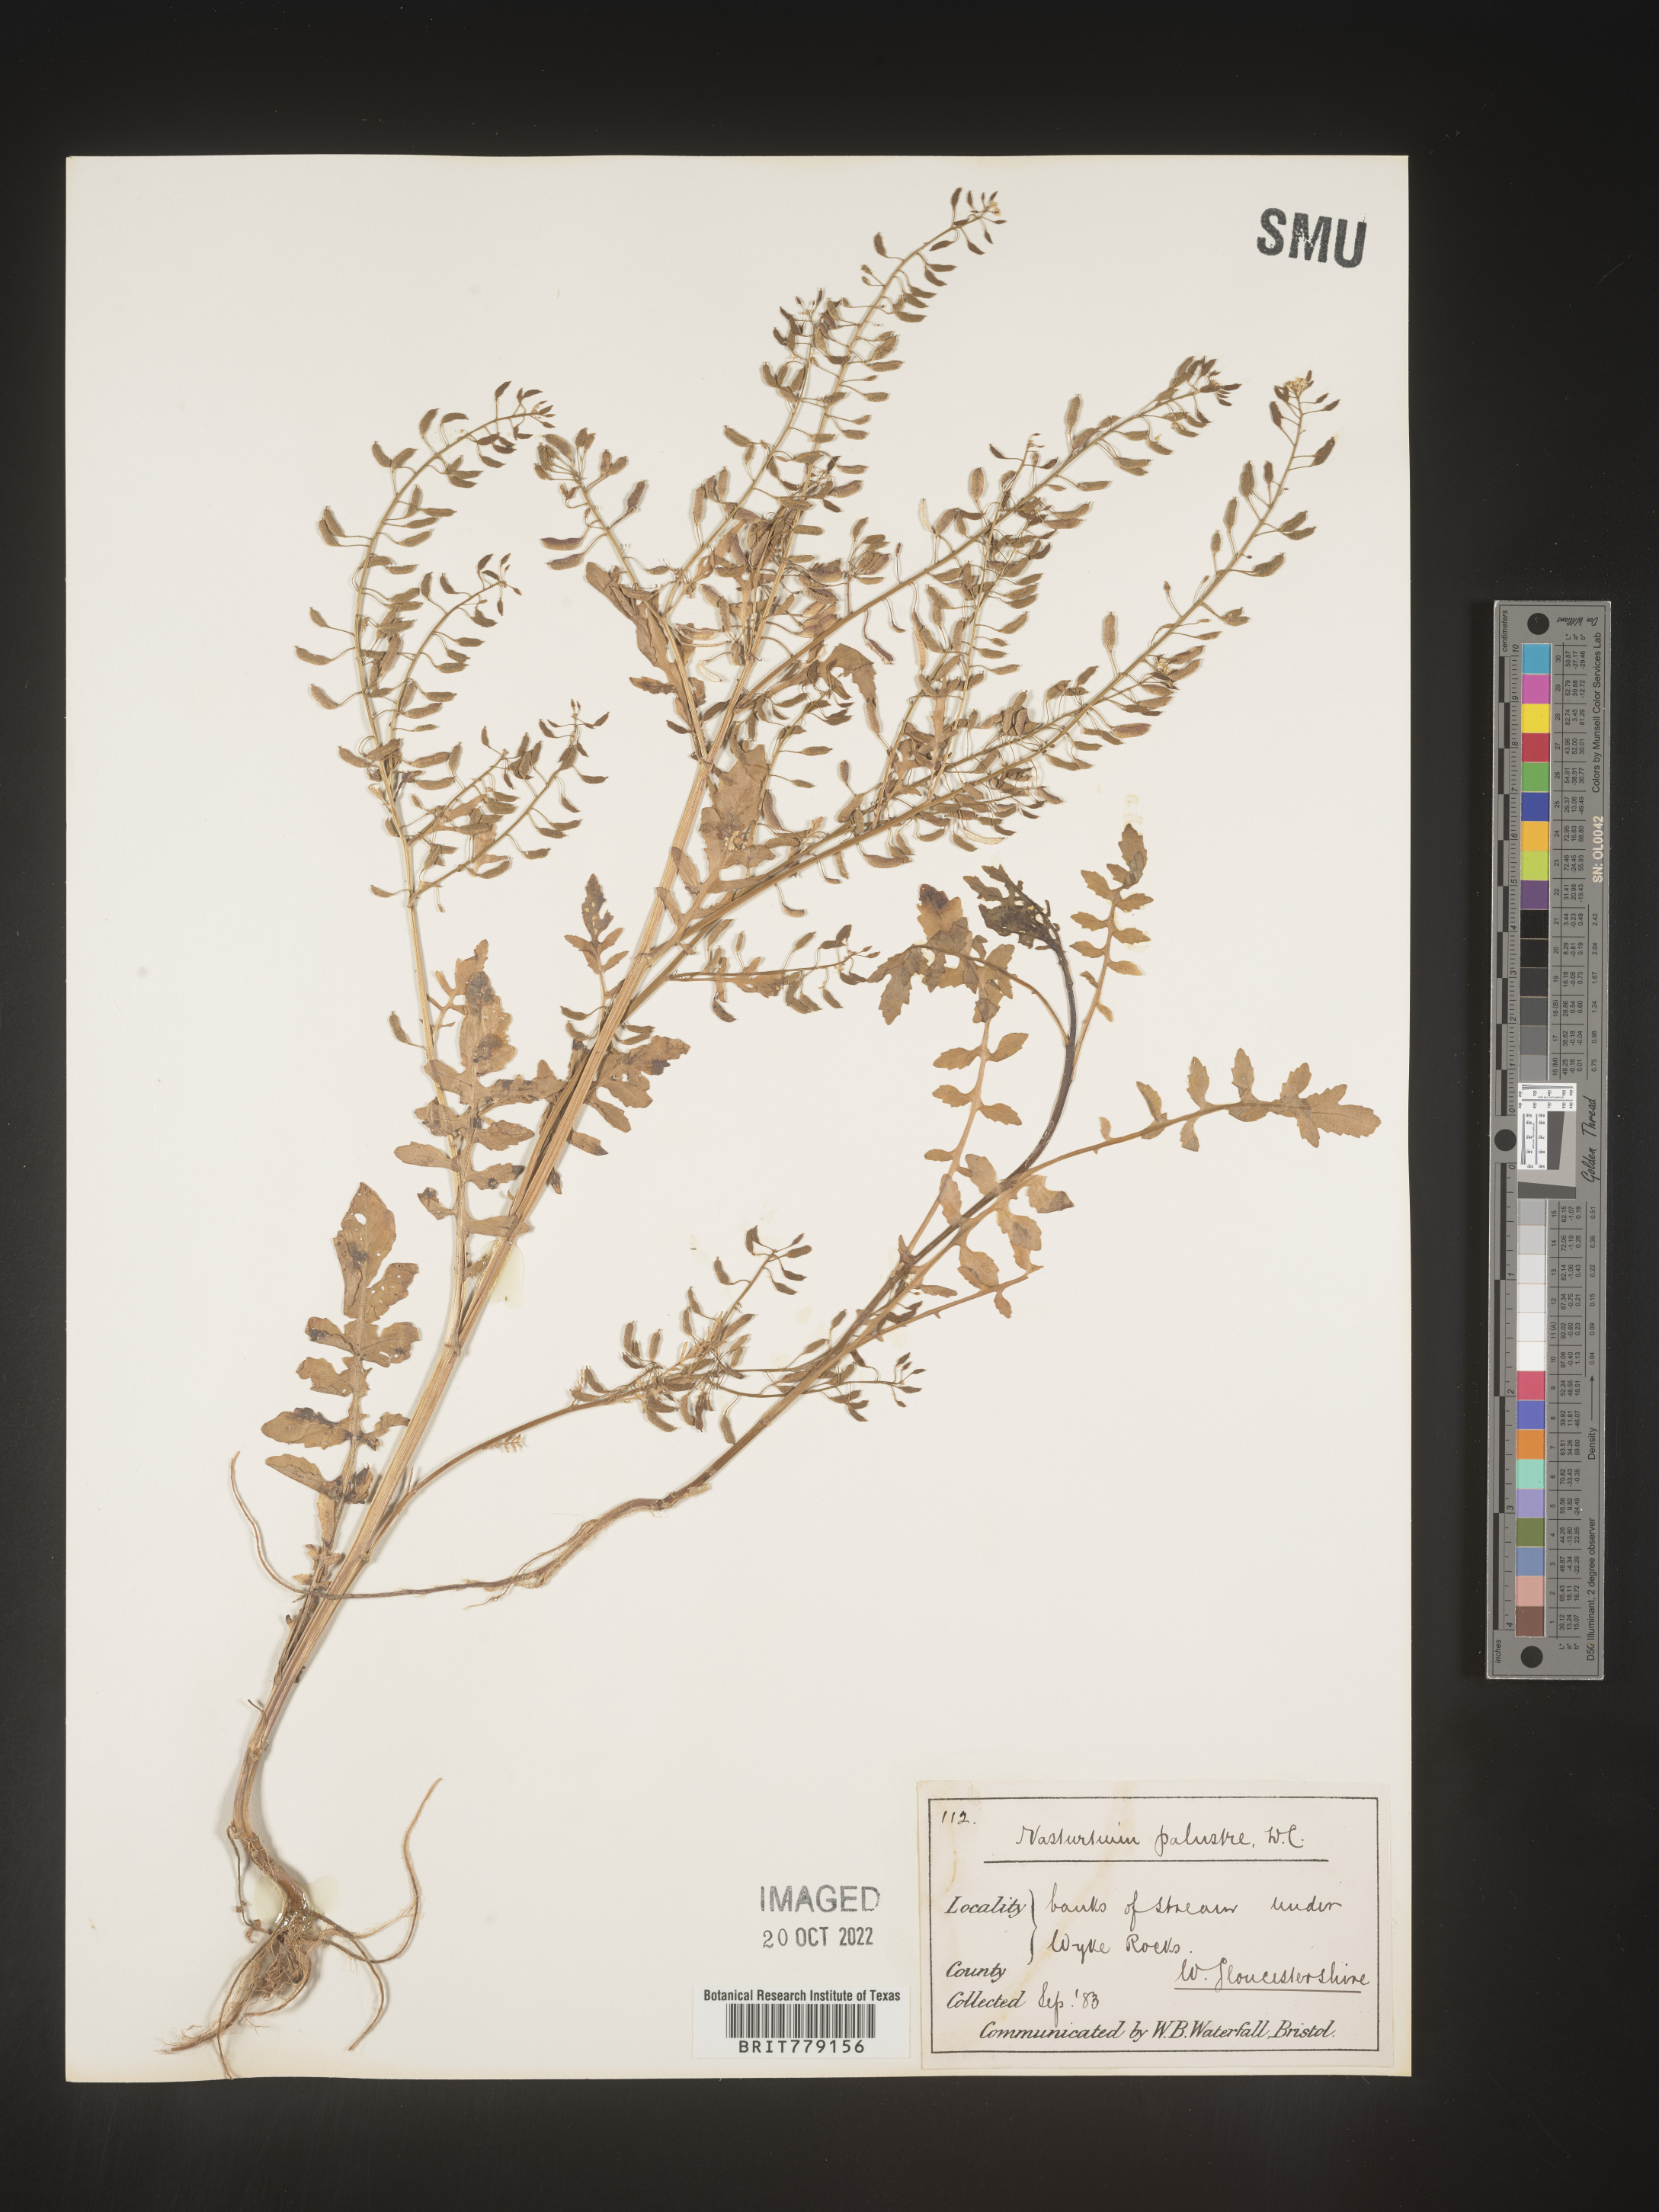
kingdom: Plantae
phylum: Tracheophyta
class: Magnoliopsida
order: Brassicales
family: Brassicaceae
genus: Rorippa
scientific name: Rorippa
